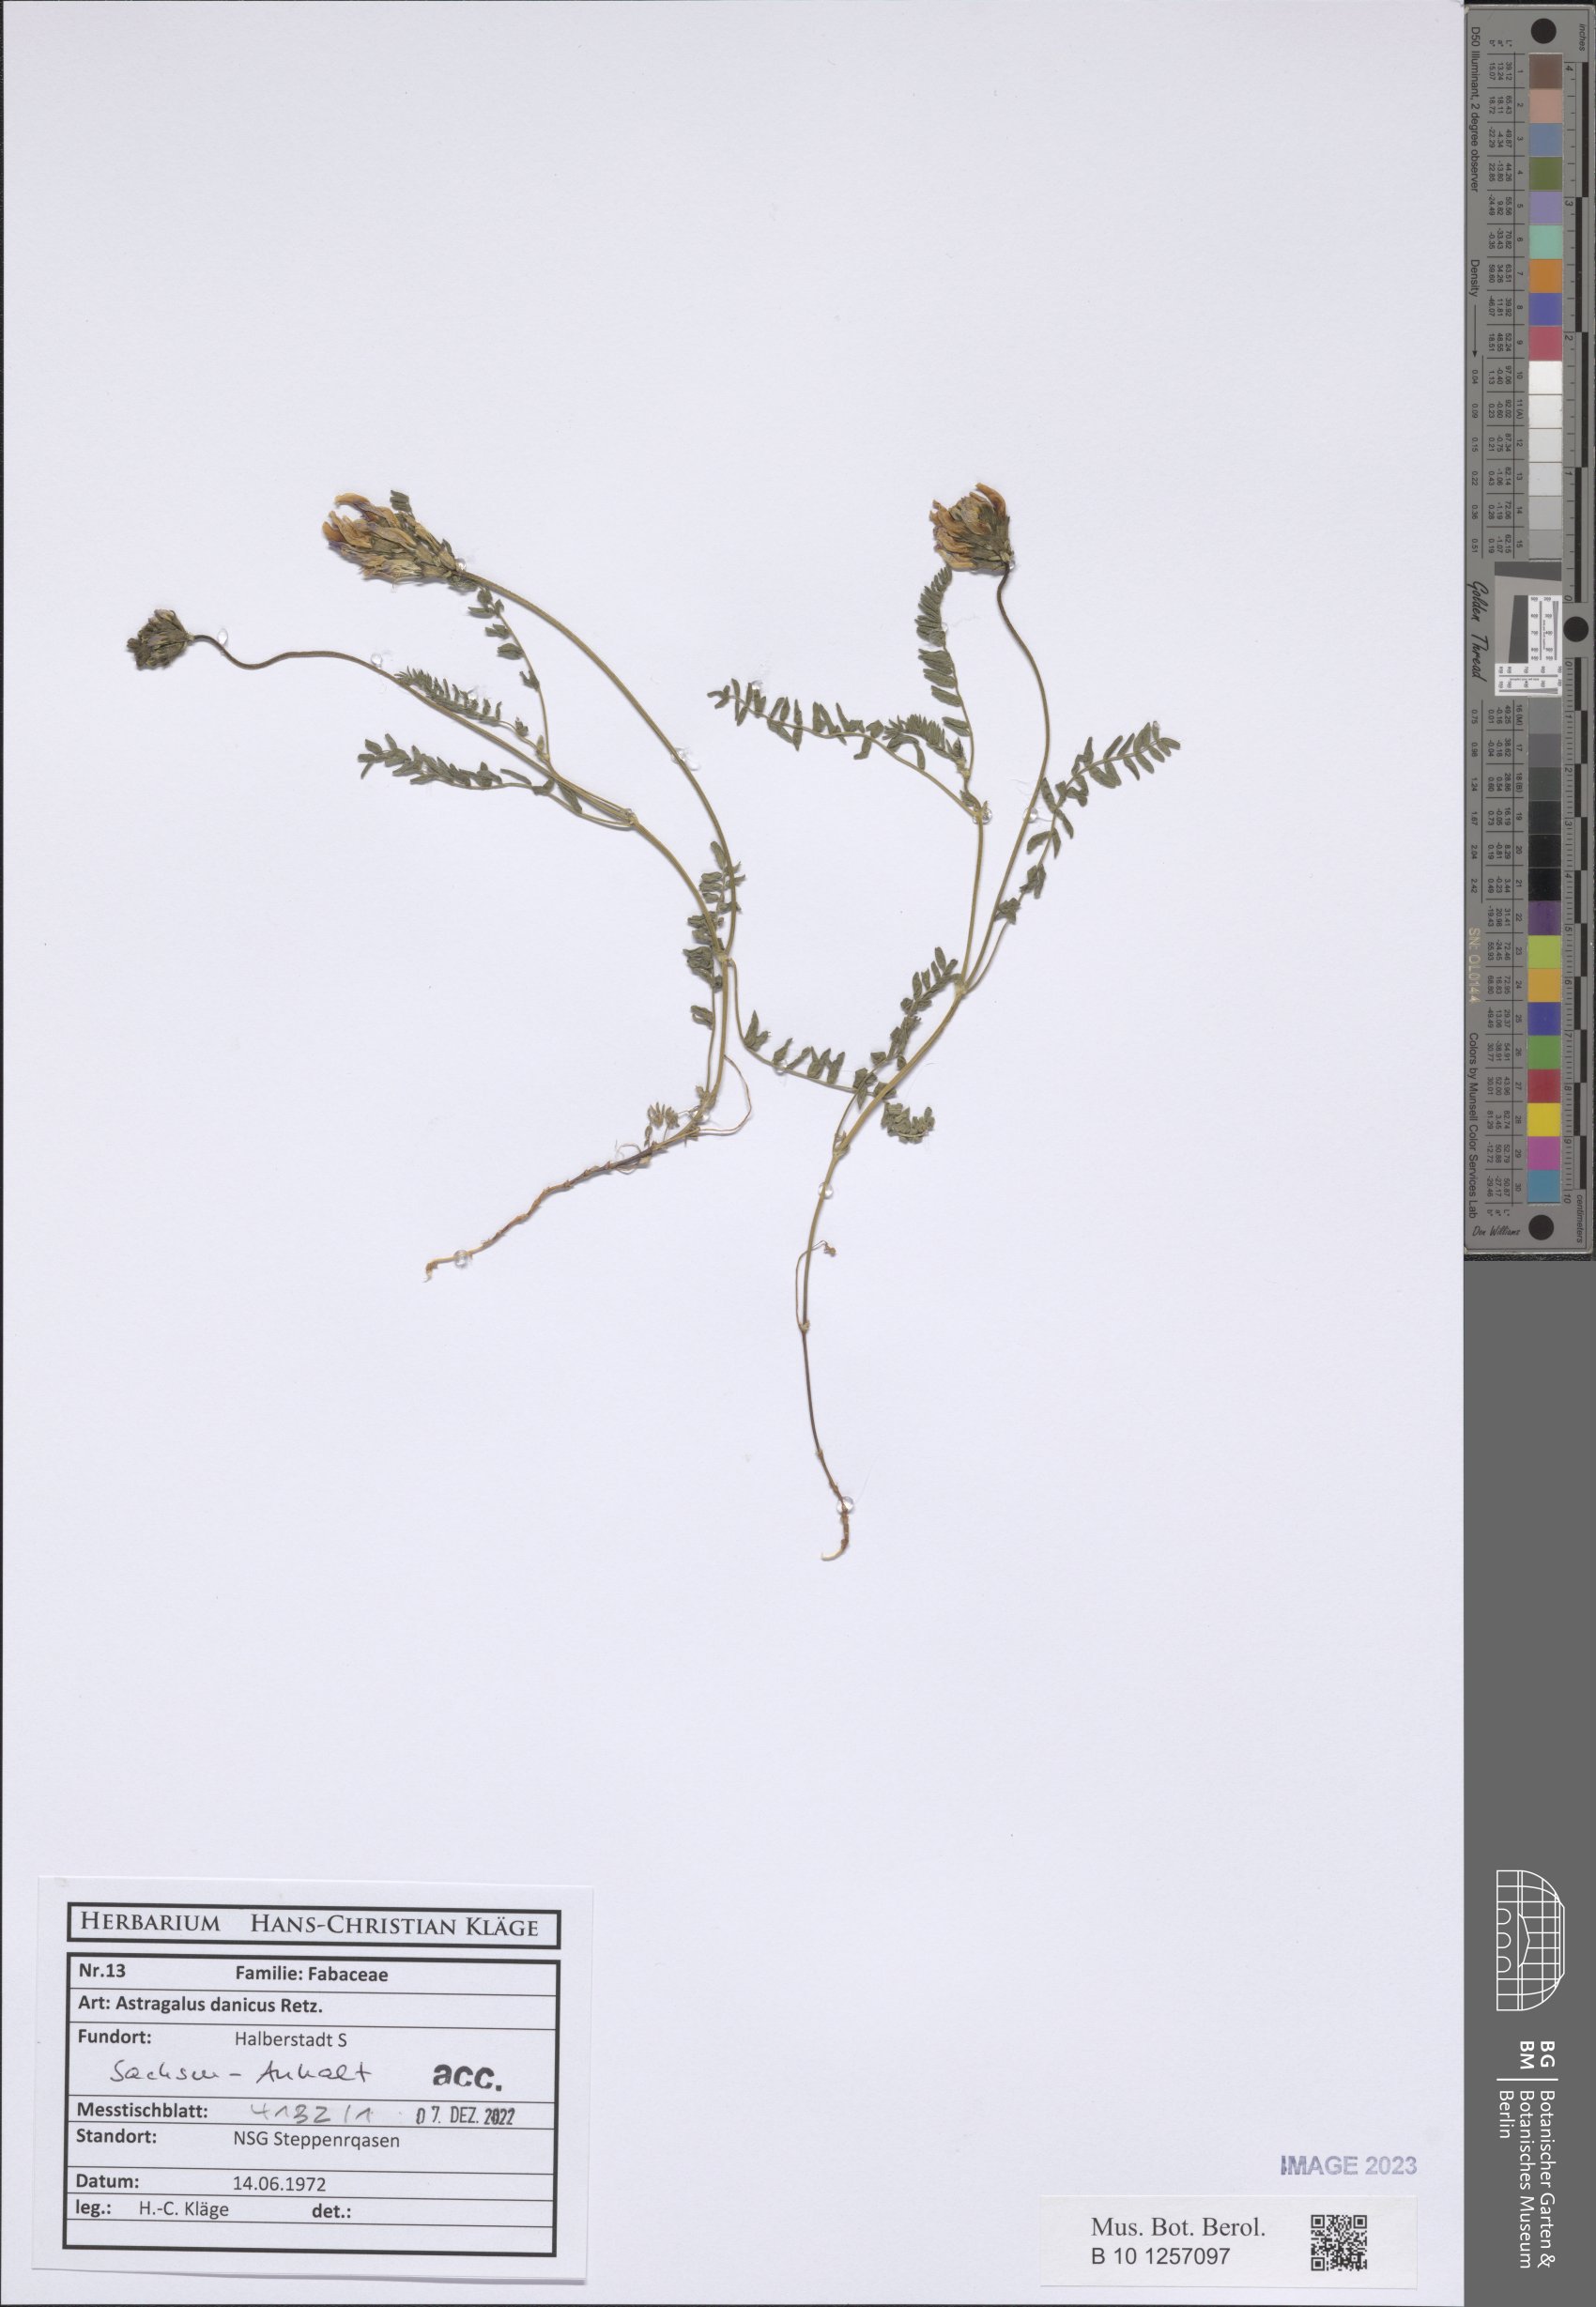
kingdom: Plantae
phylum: Tracheophyta
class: Magnoliopsida
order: Fabales
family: Fabaceae
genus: Astragalus
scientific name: Astragalus danicus
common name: Purple milk-vetch
